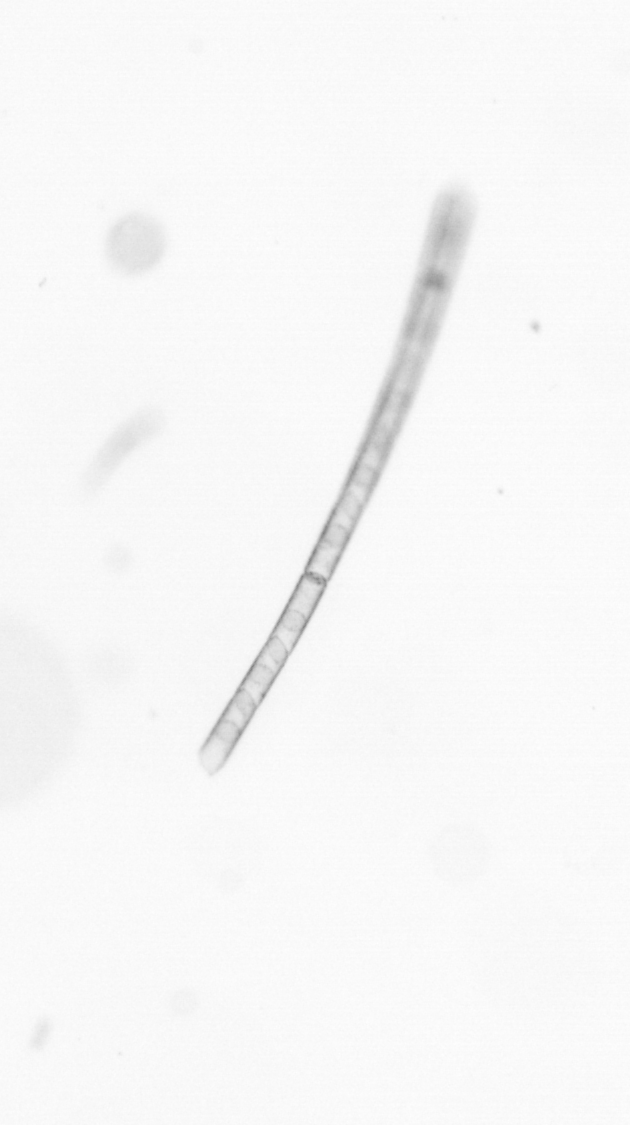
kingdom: Chromista
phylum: Ochrophyta
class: Bacillariophyceae
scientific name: Bacillariophyceae
